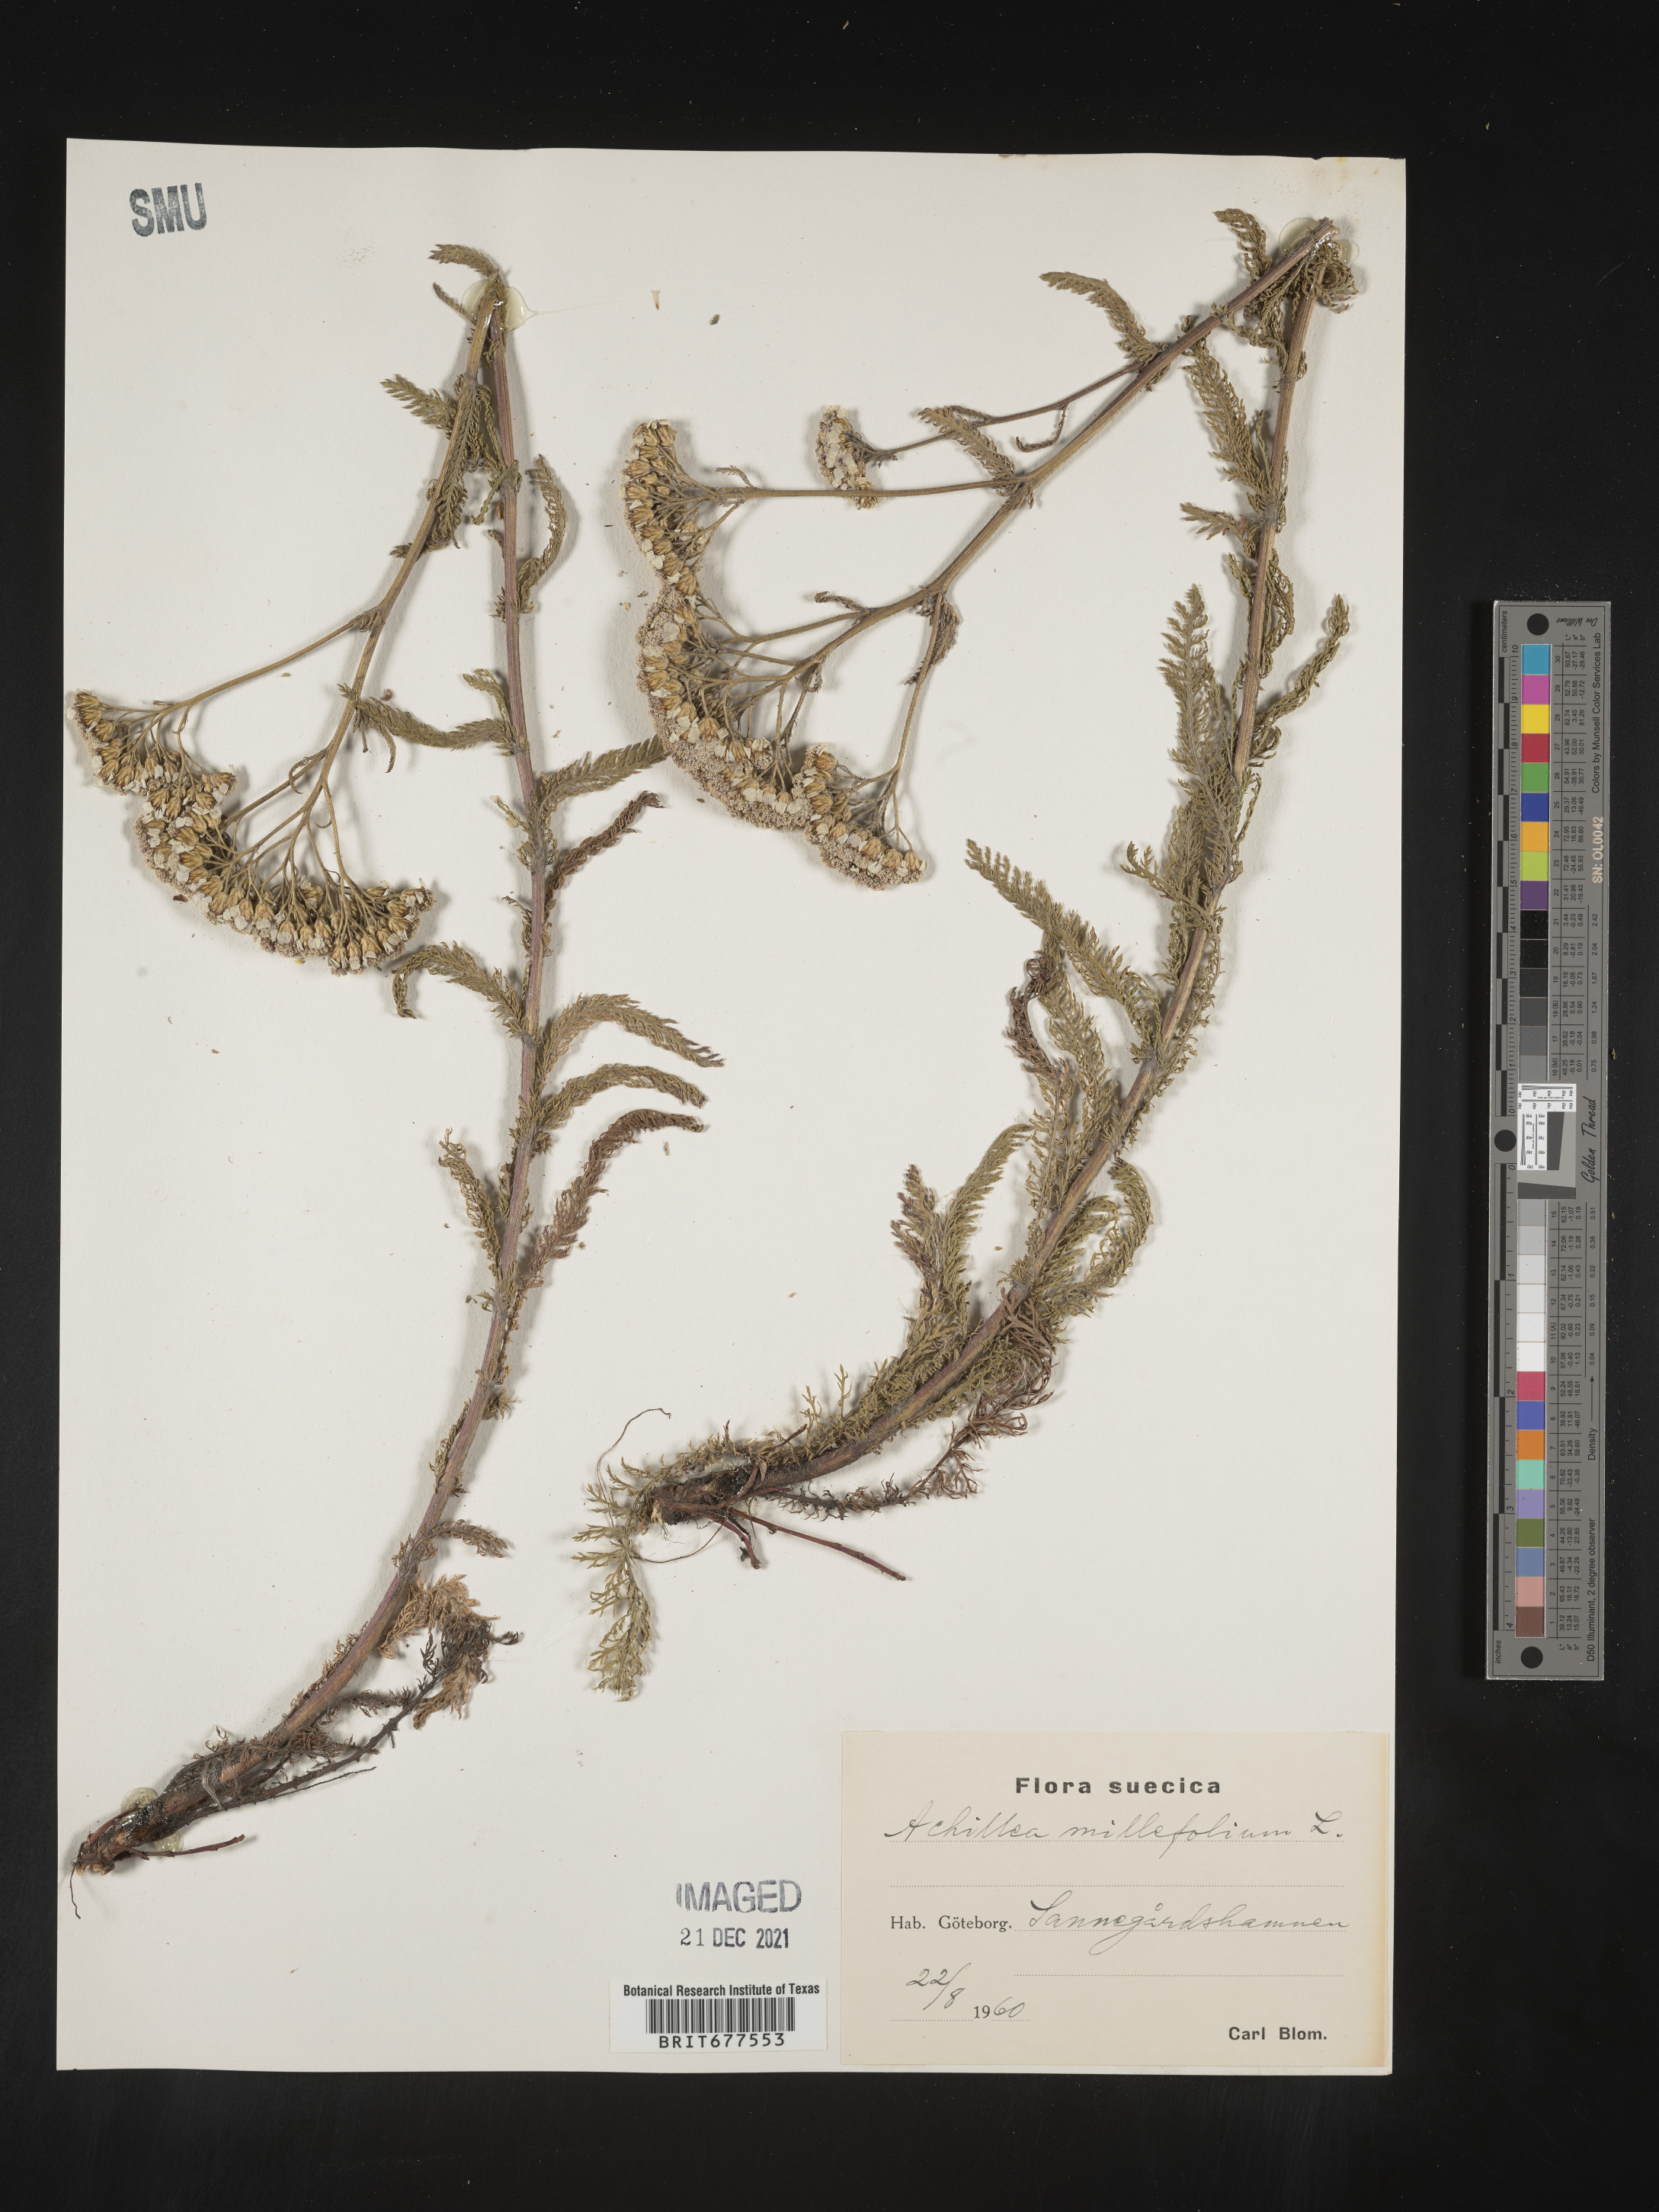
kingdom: Plantae
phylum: Tracheophyta
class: Magnoliopsida
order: Asterales
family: Asteraceae
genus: Achillea
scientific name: Achillea millefolium
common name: Yarrow
